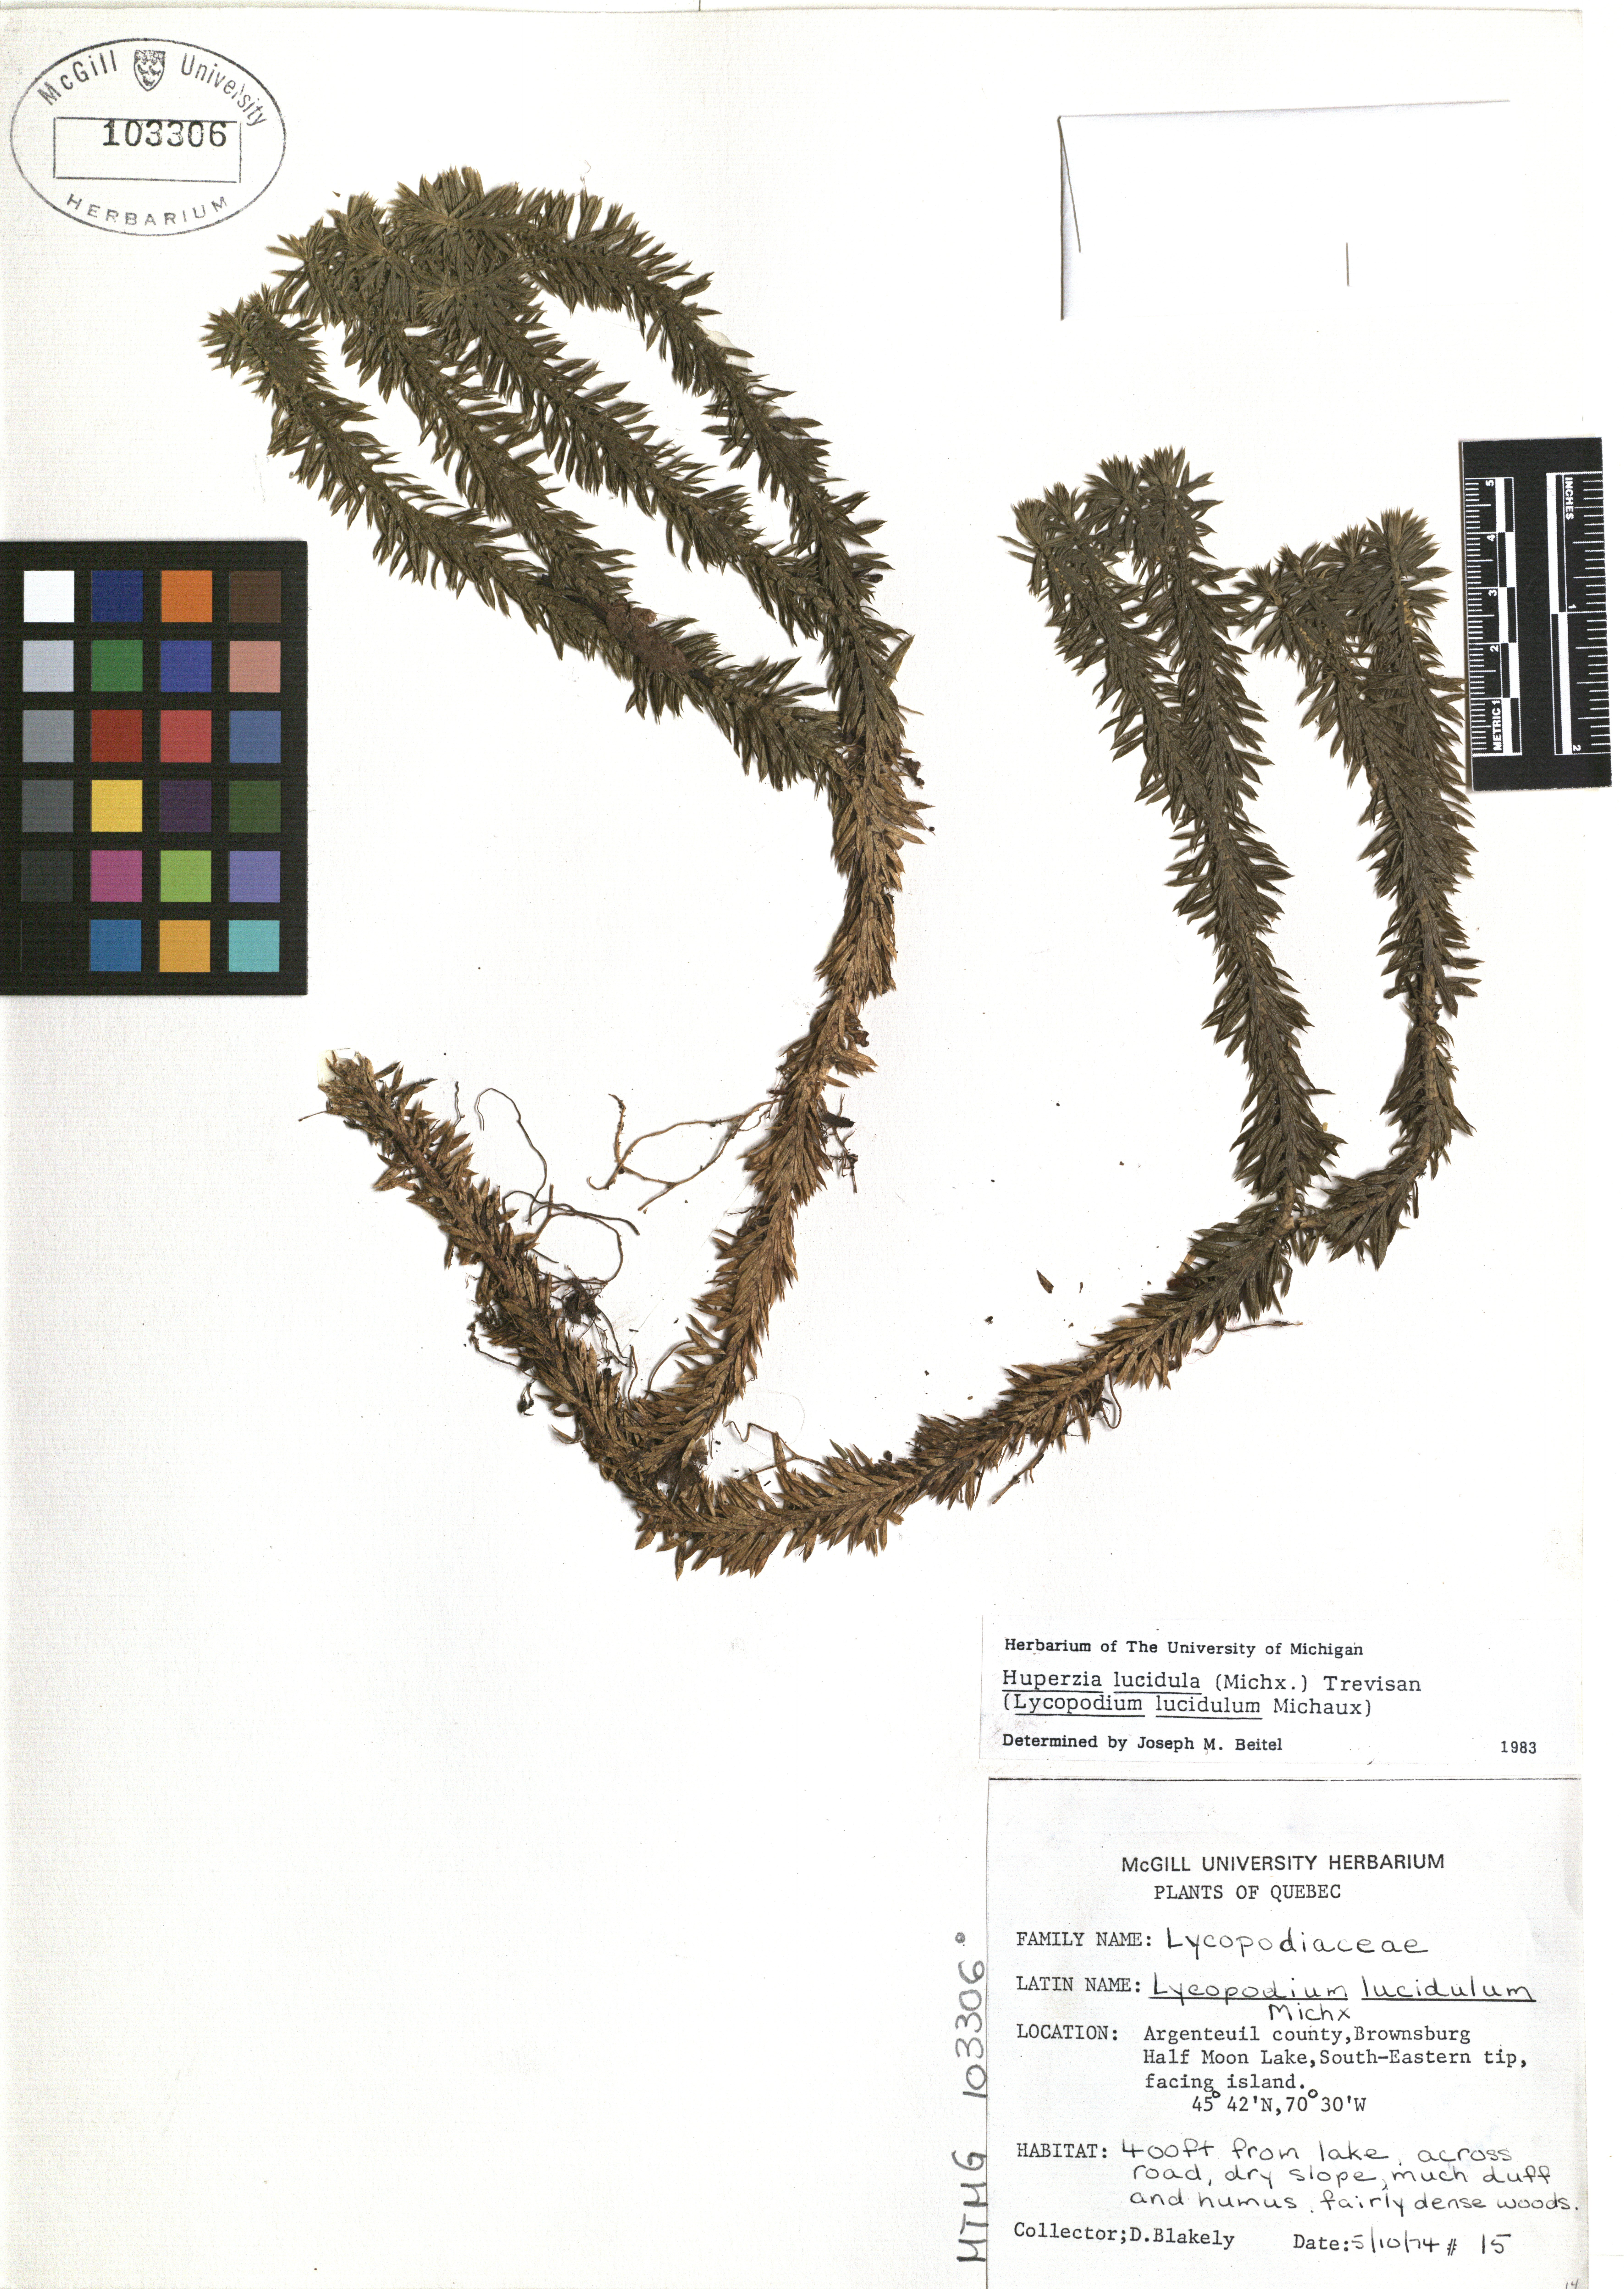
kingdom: Plantae
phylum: Tracheophyta
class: Lycopodiopsida
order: Lycopodiales
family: Lycopodiaceae
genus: Huperzia
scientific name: Huperzia lucidula
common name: Shining clubmoss
